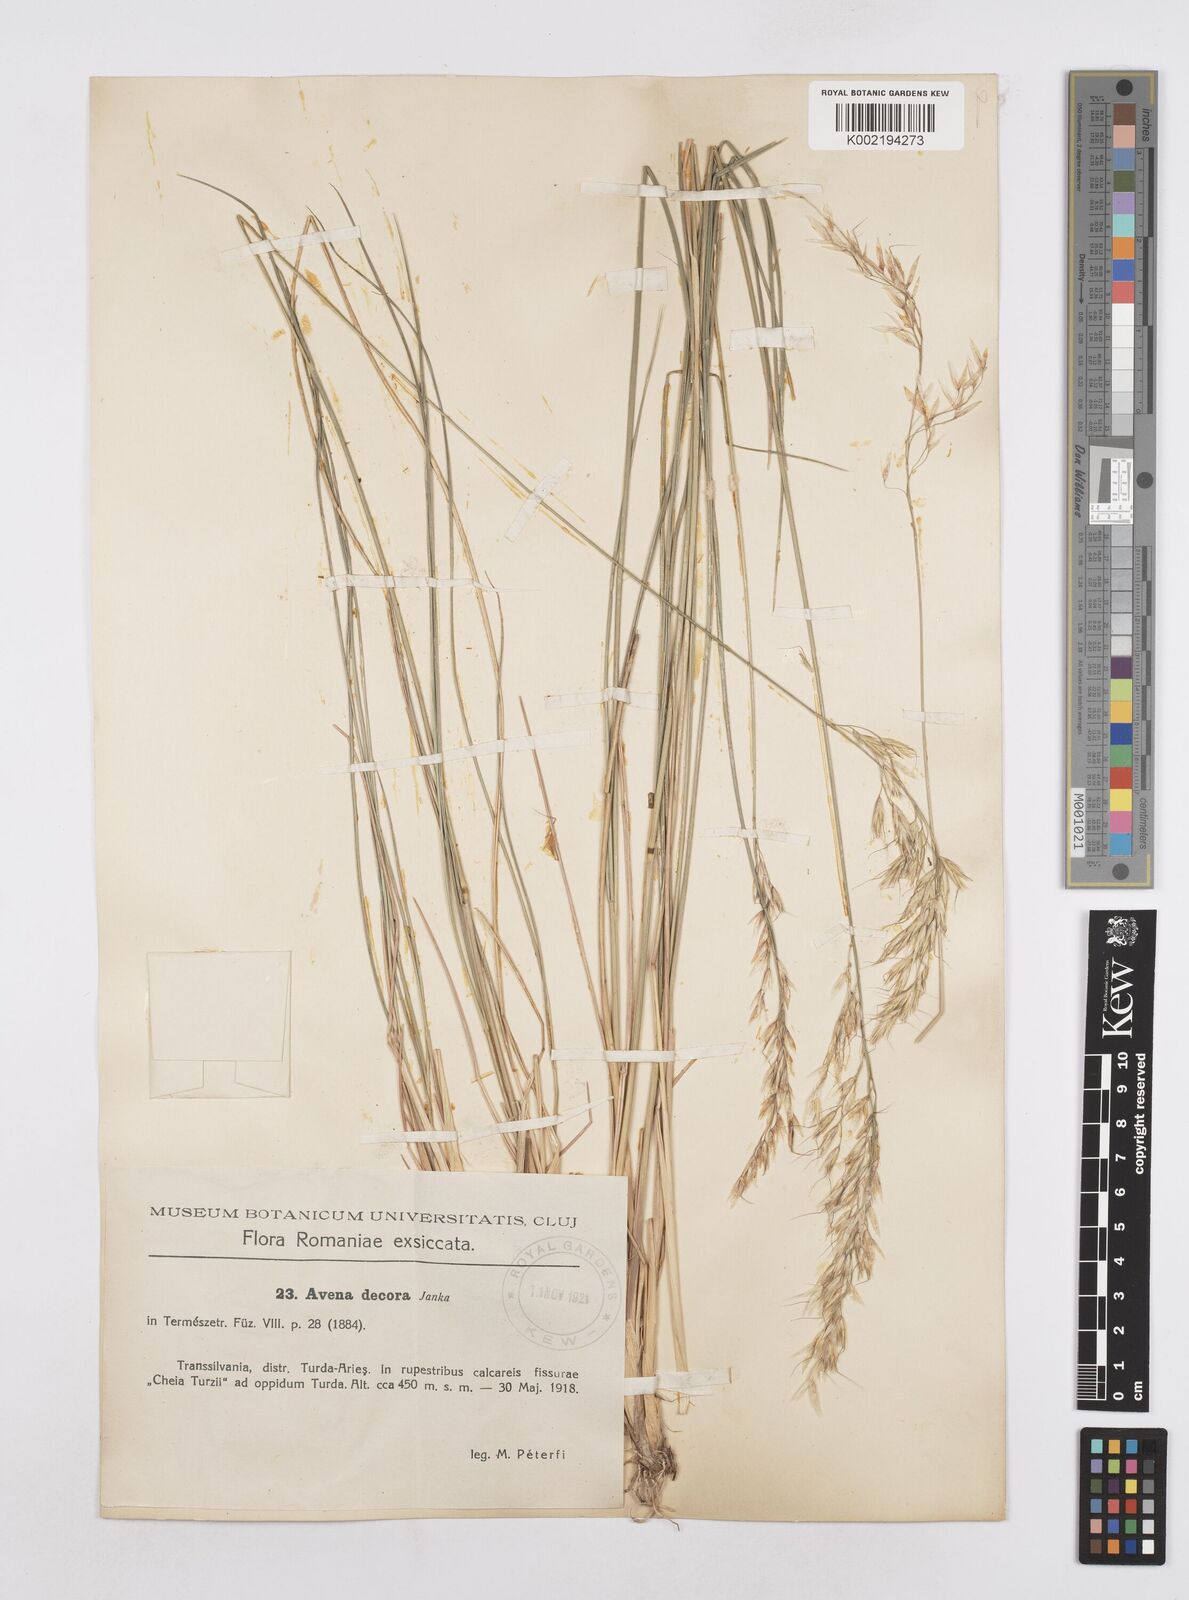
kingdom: Plantae
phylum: Tracheophyta
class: Liliopsida
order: Poales
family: Poaceae
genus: Helictotrichon
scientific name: Helictotrichon decorum
